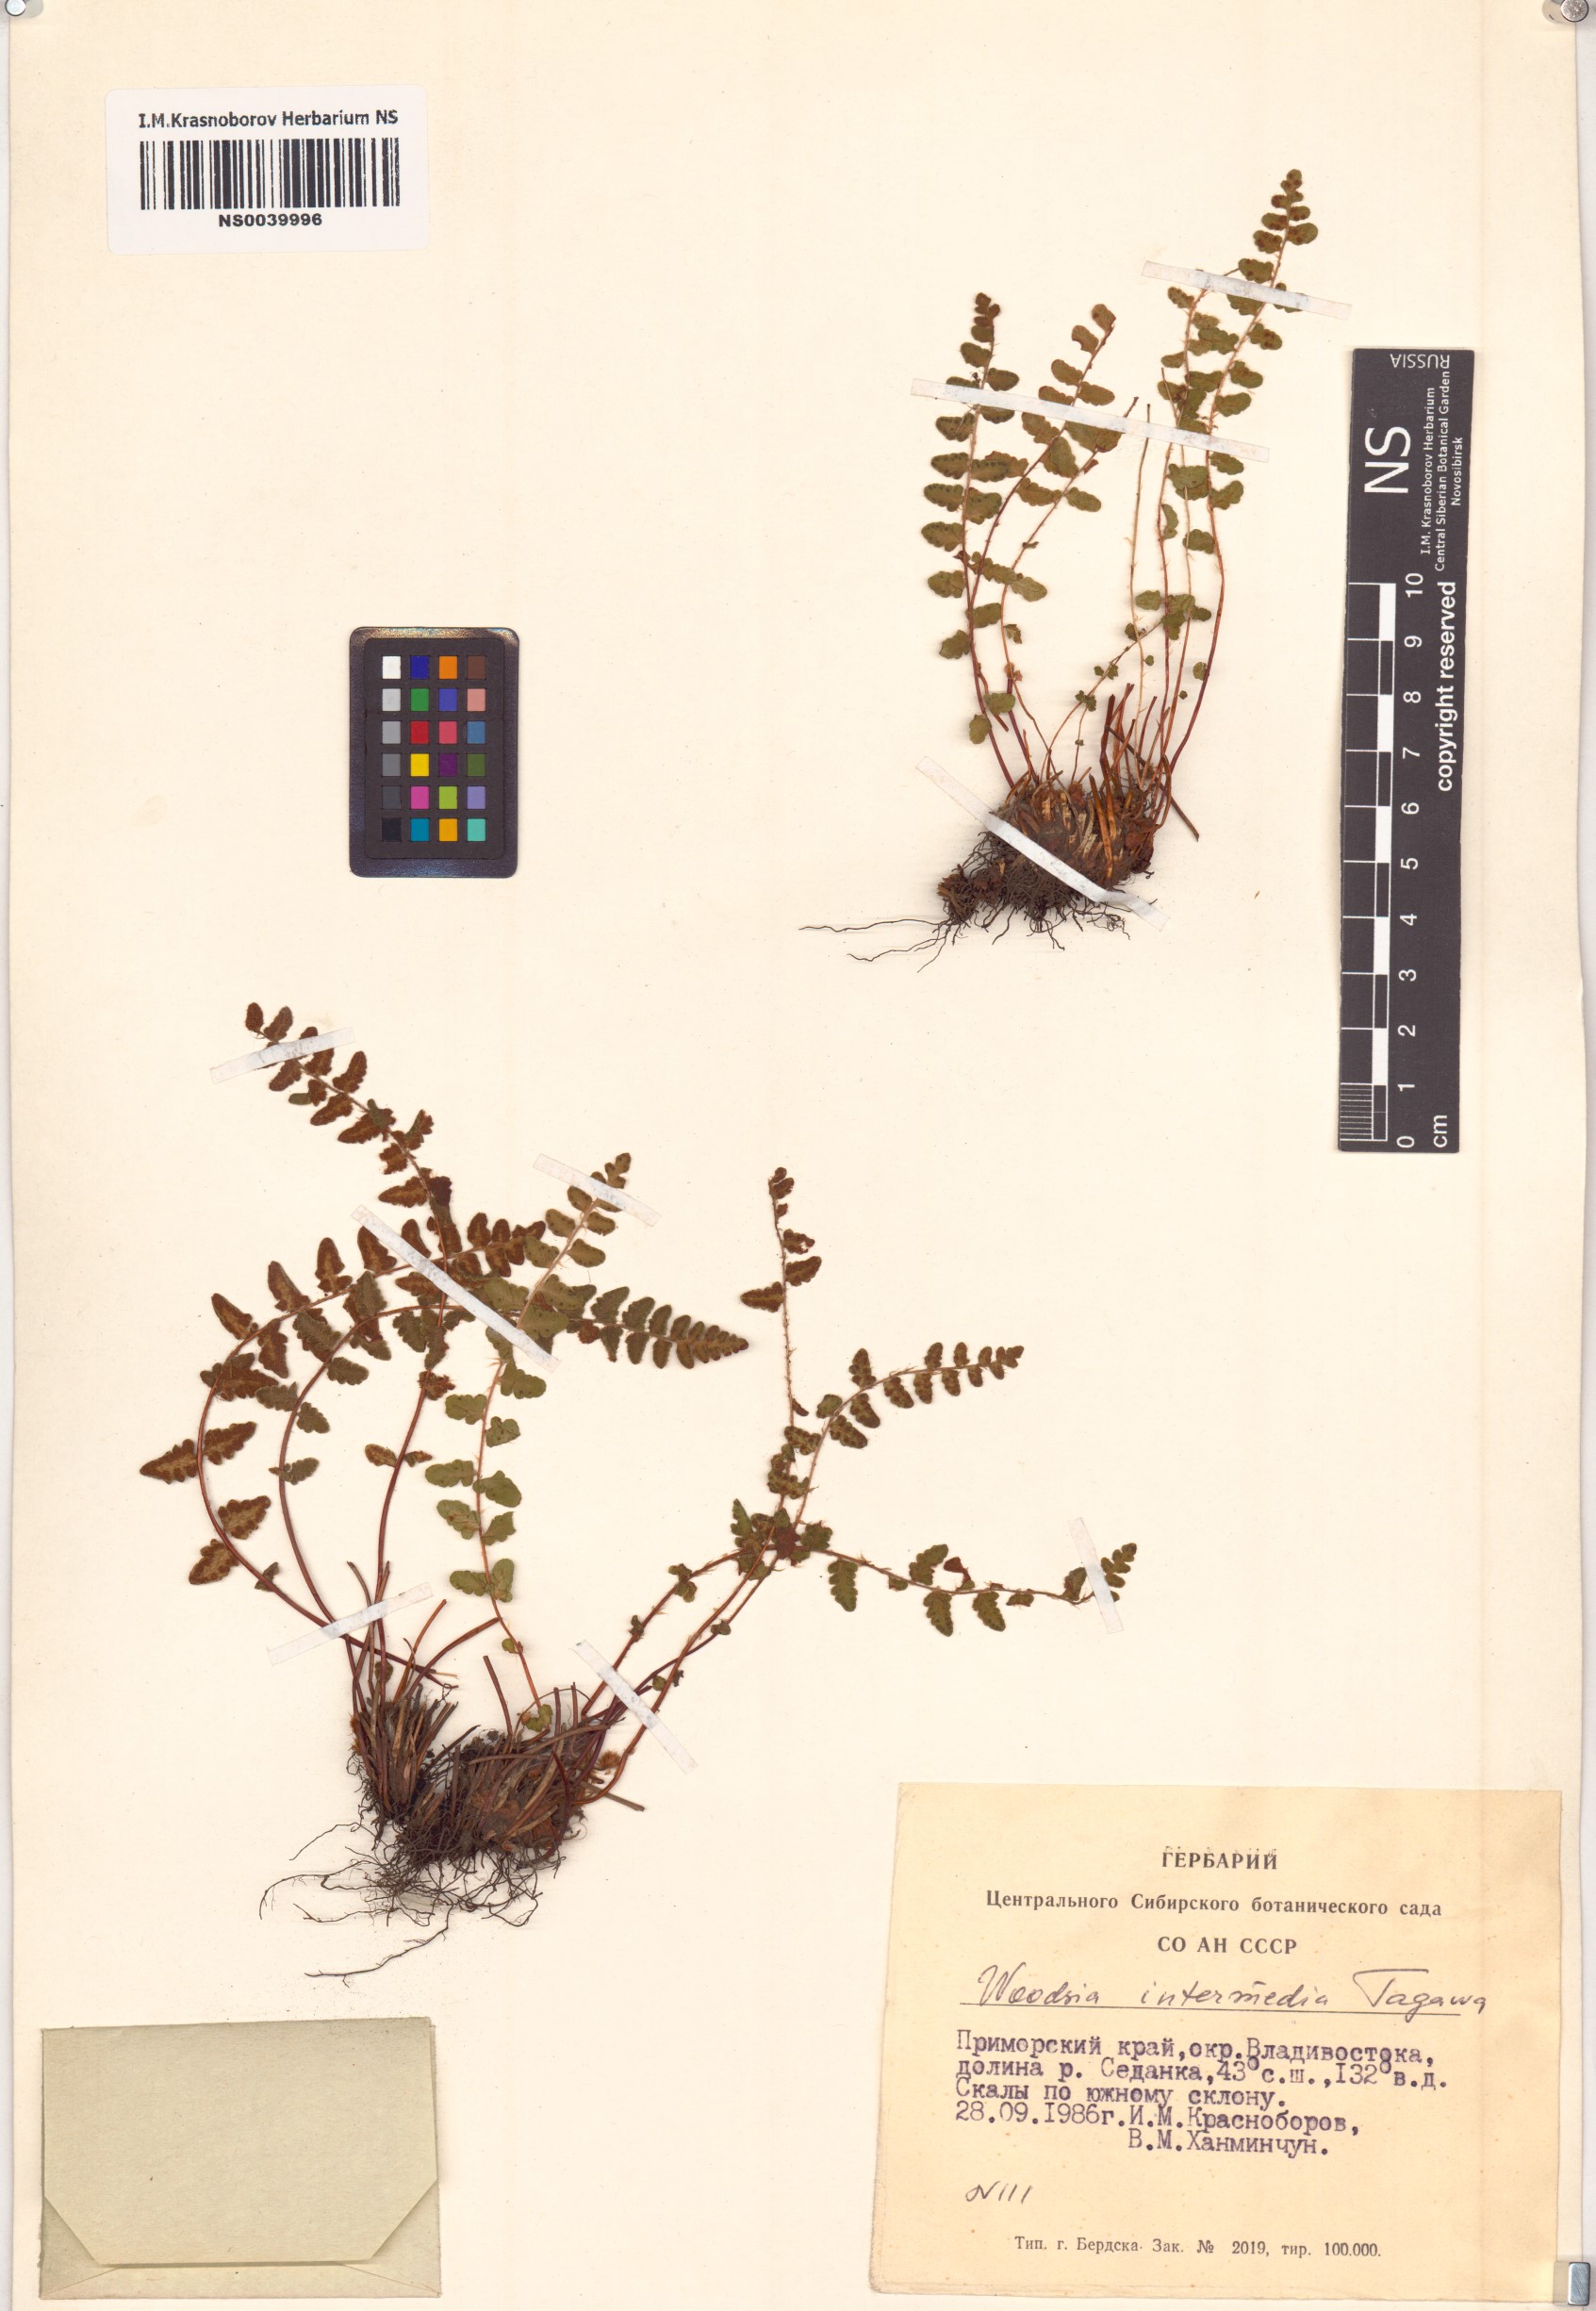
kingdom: Plantae
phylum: Tracheophyta
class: Polypodiopsida
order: Polypodiales
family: Woodsiaceae
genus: Woodsia
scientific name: Woodsia taishanensis
